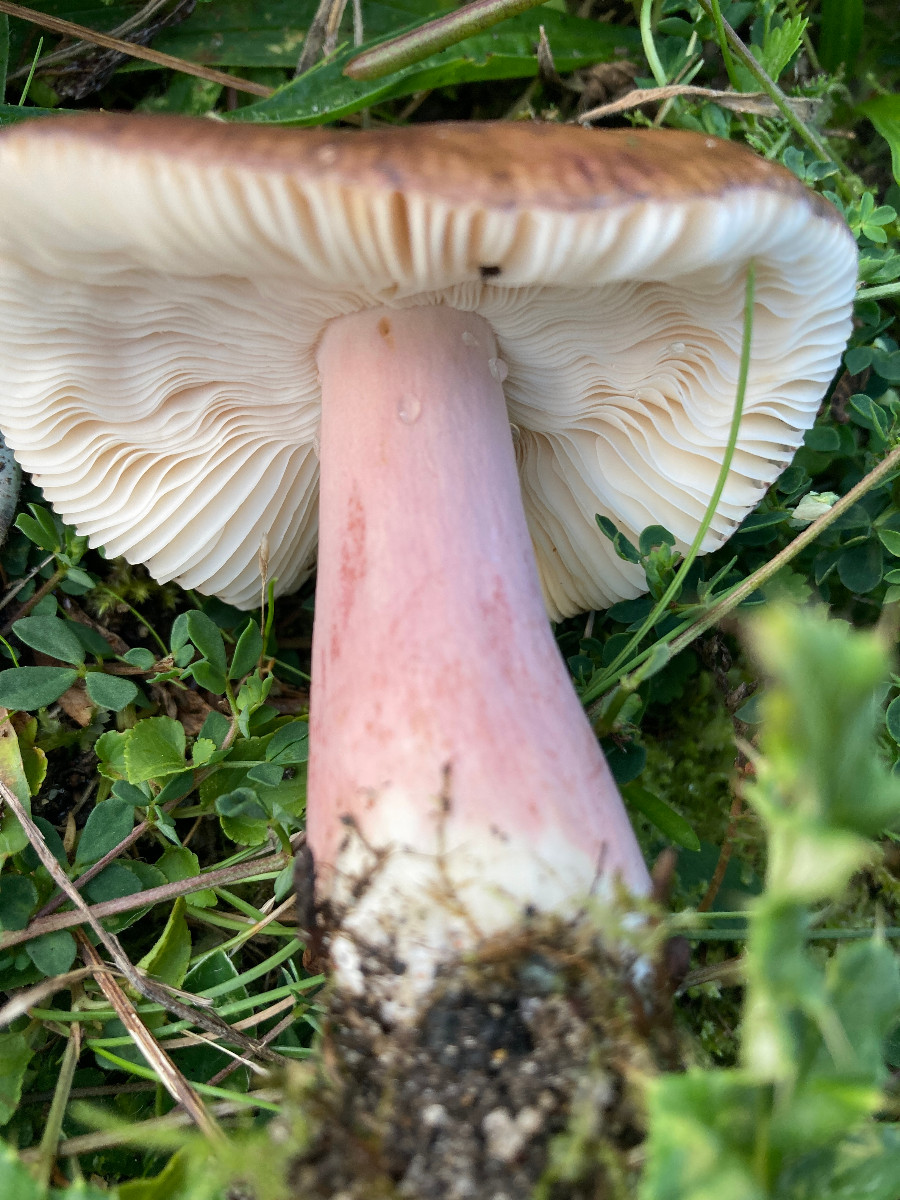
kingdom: Fungi
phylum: Basidiomycota
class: Agaricomycetes
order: Russulales
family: Russulaceae
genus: Russula
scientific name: Russula queletii
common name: Quélets skørhat
